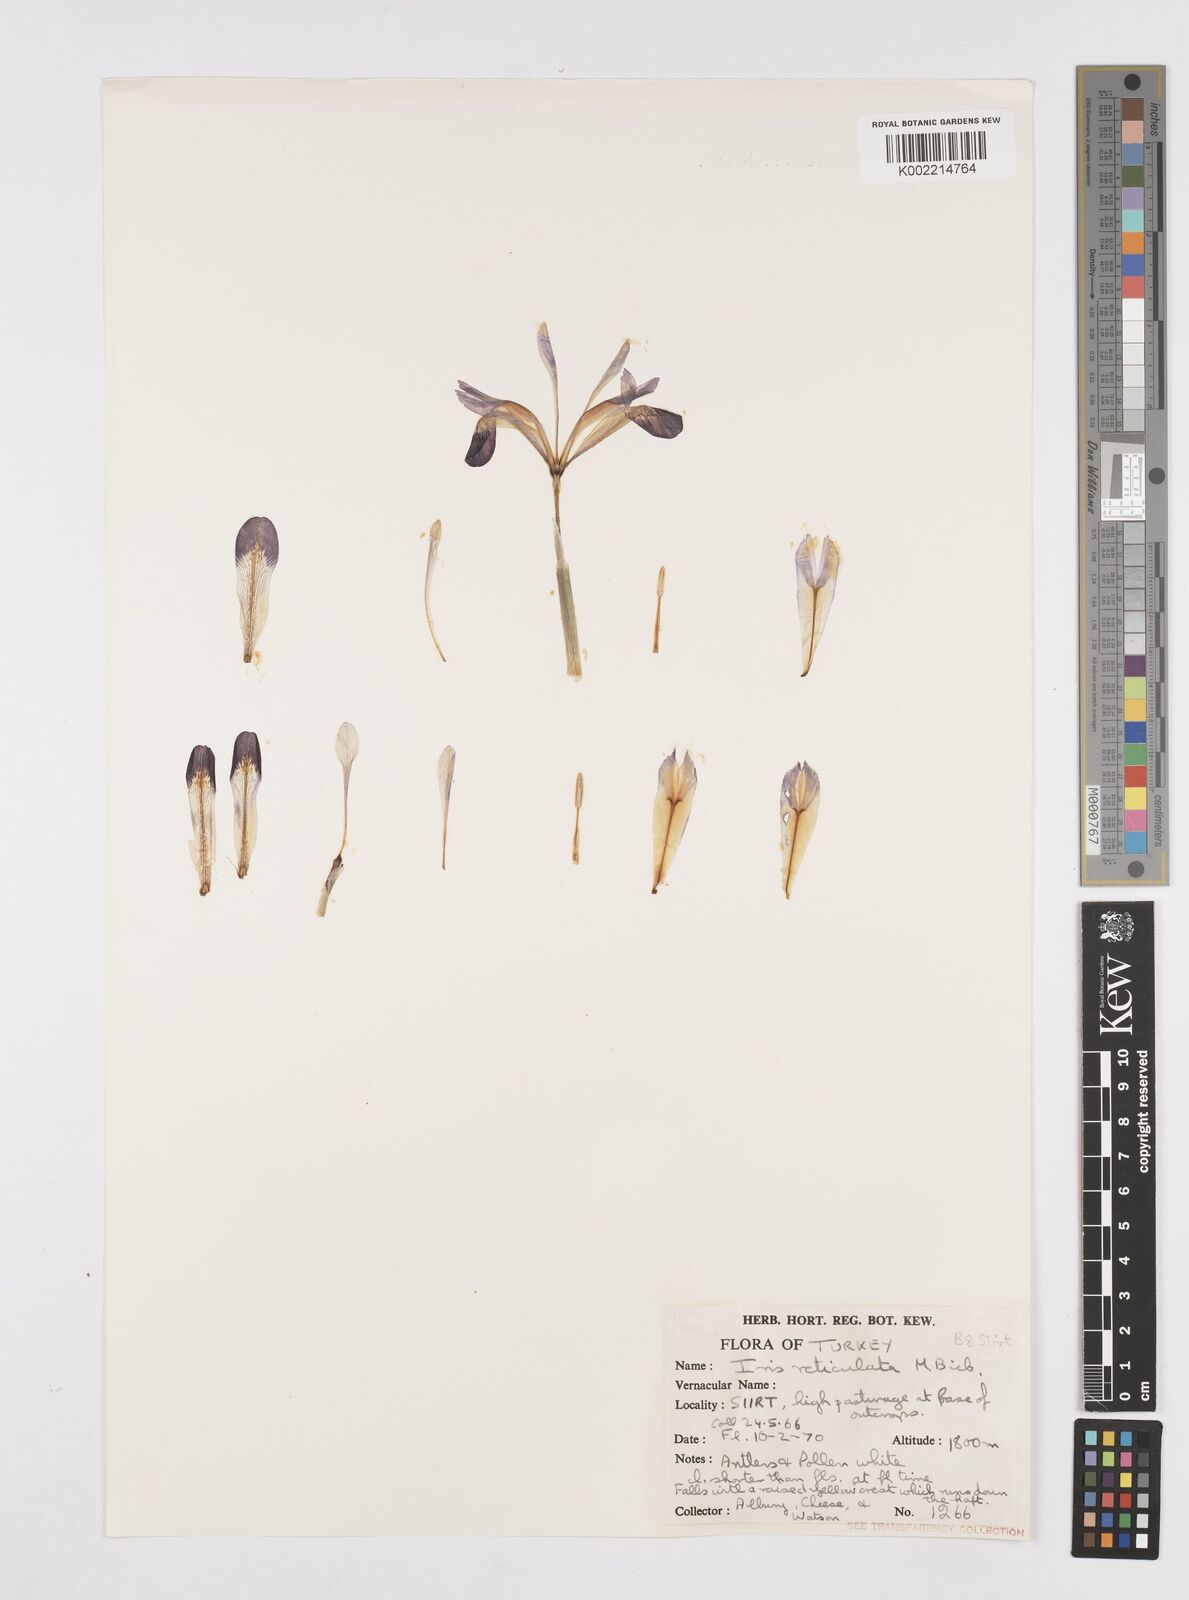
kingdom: Plantae
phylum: Tracheophyta
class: Liliopsida
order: Asparagales
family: Iridaceae
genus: Iris
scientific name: Iris reticulata
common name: Netted iris
